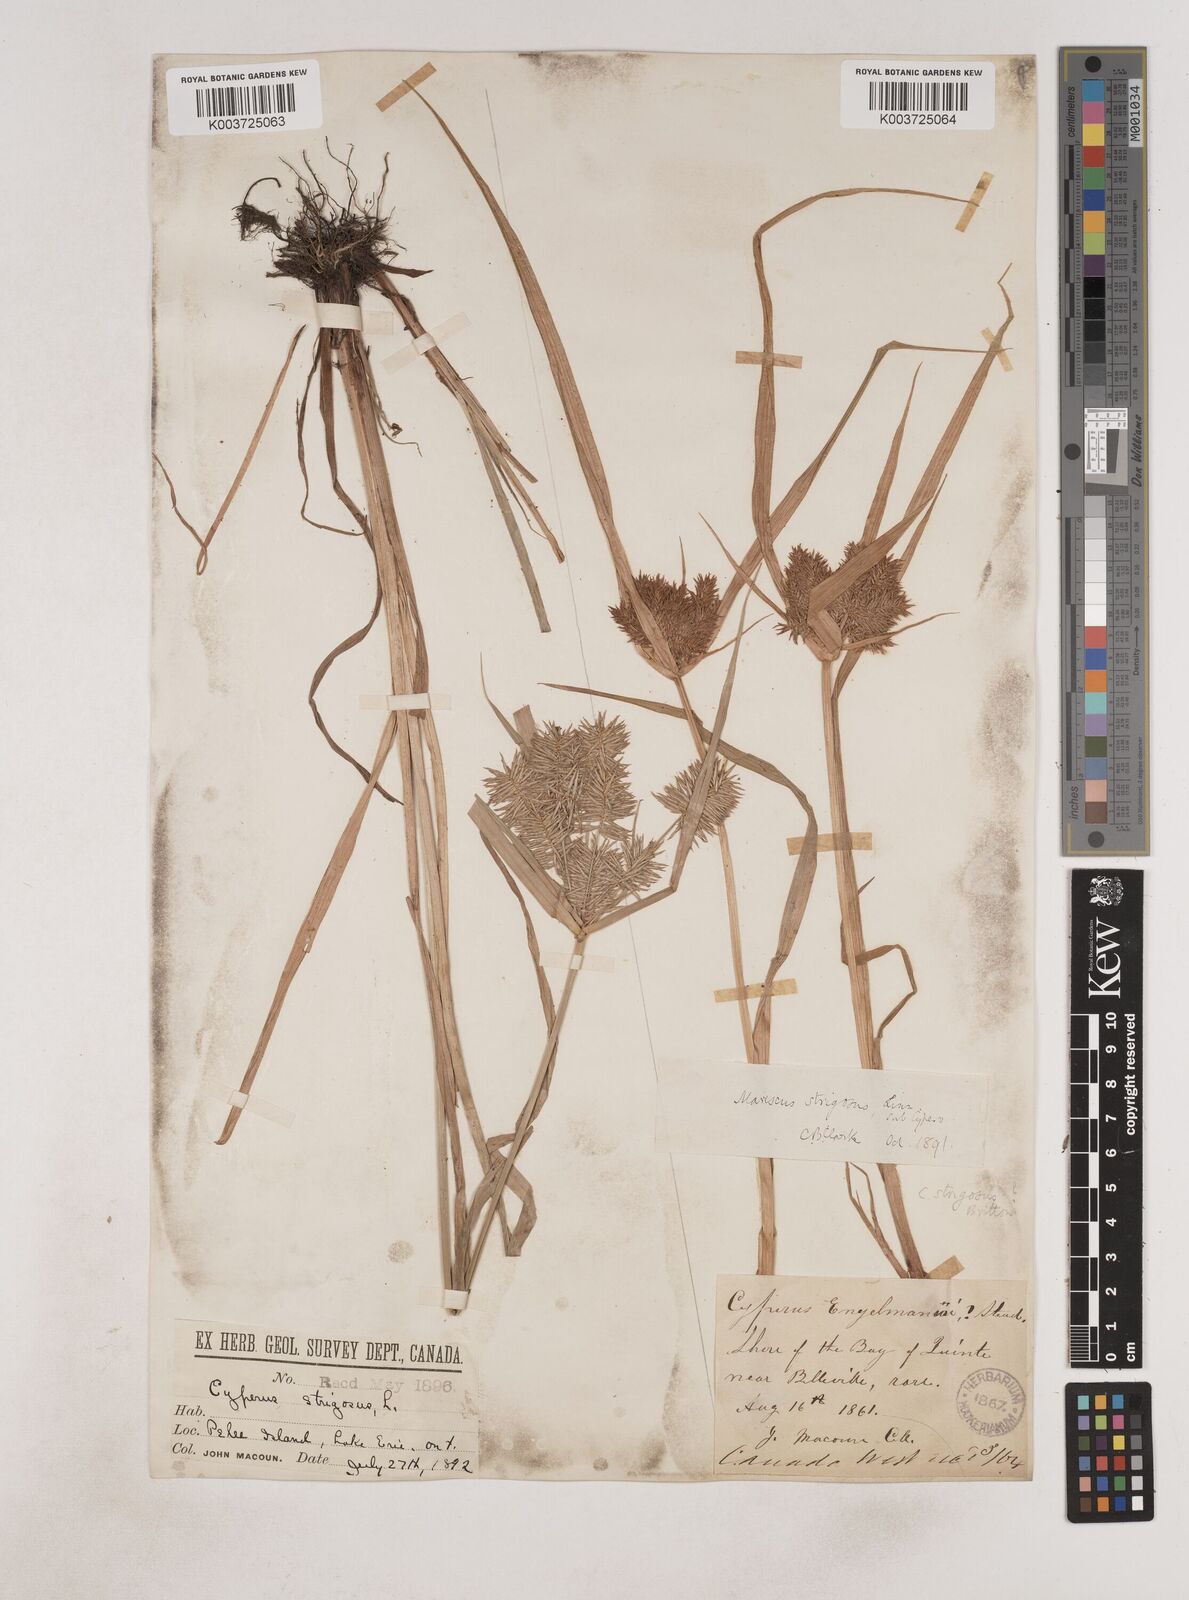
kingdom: Plantae
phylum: Tracheophyta
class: Liliopsida
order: Poales
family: Cyperaceae
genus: Cyperus
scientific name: Cyperus strigosus
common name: False nutsedge
